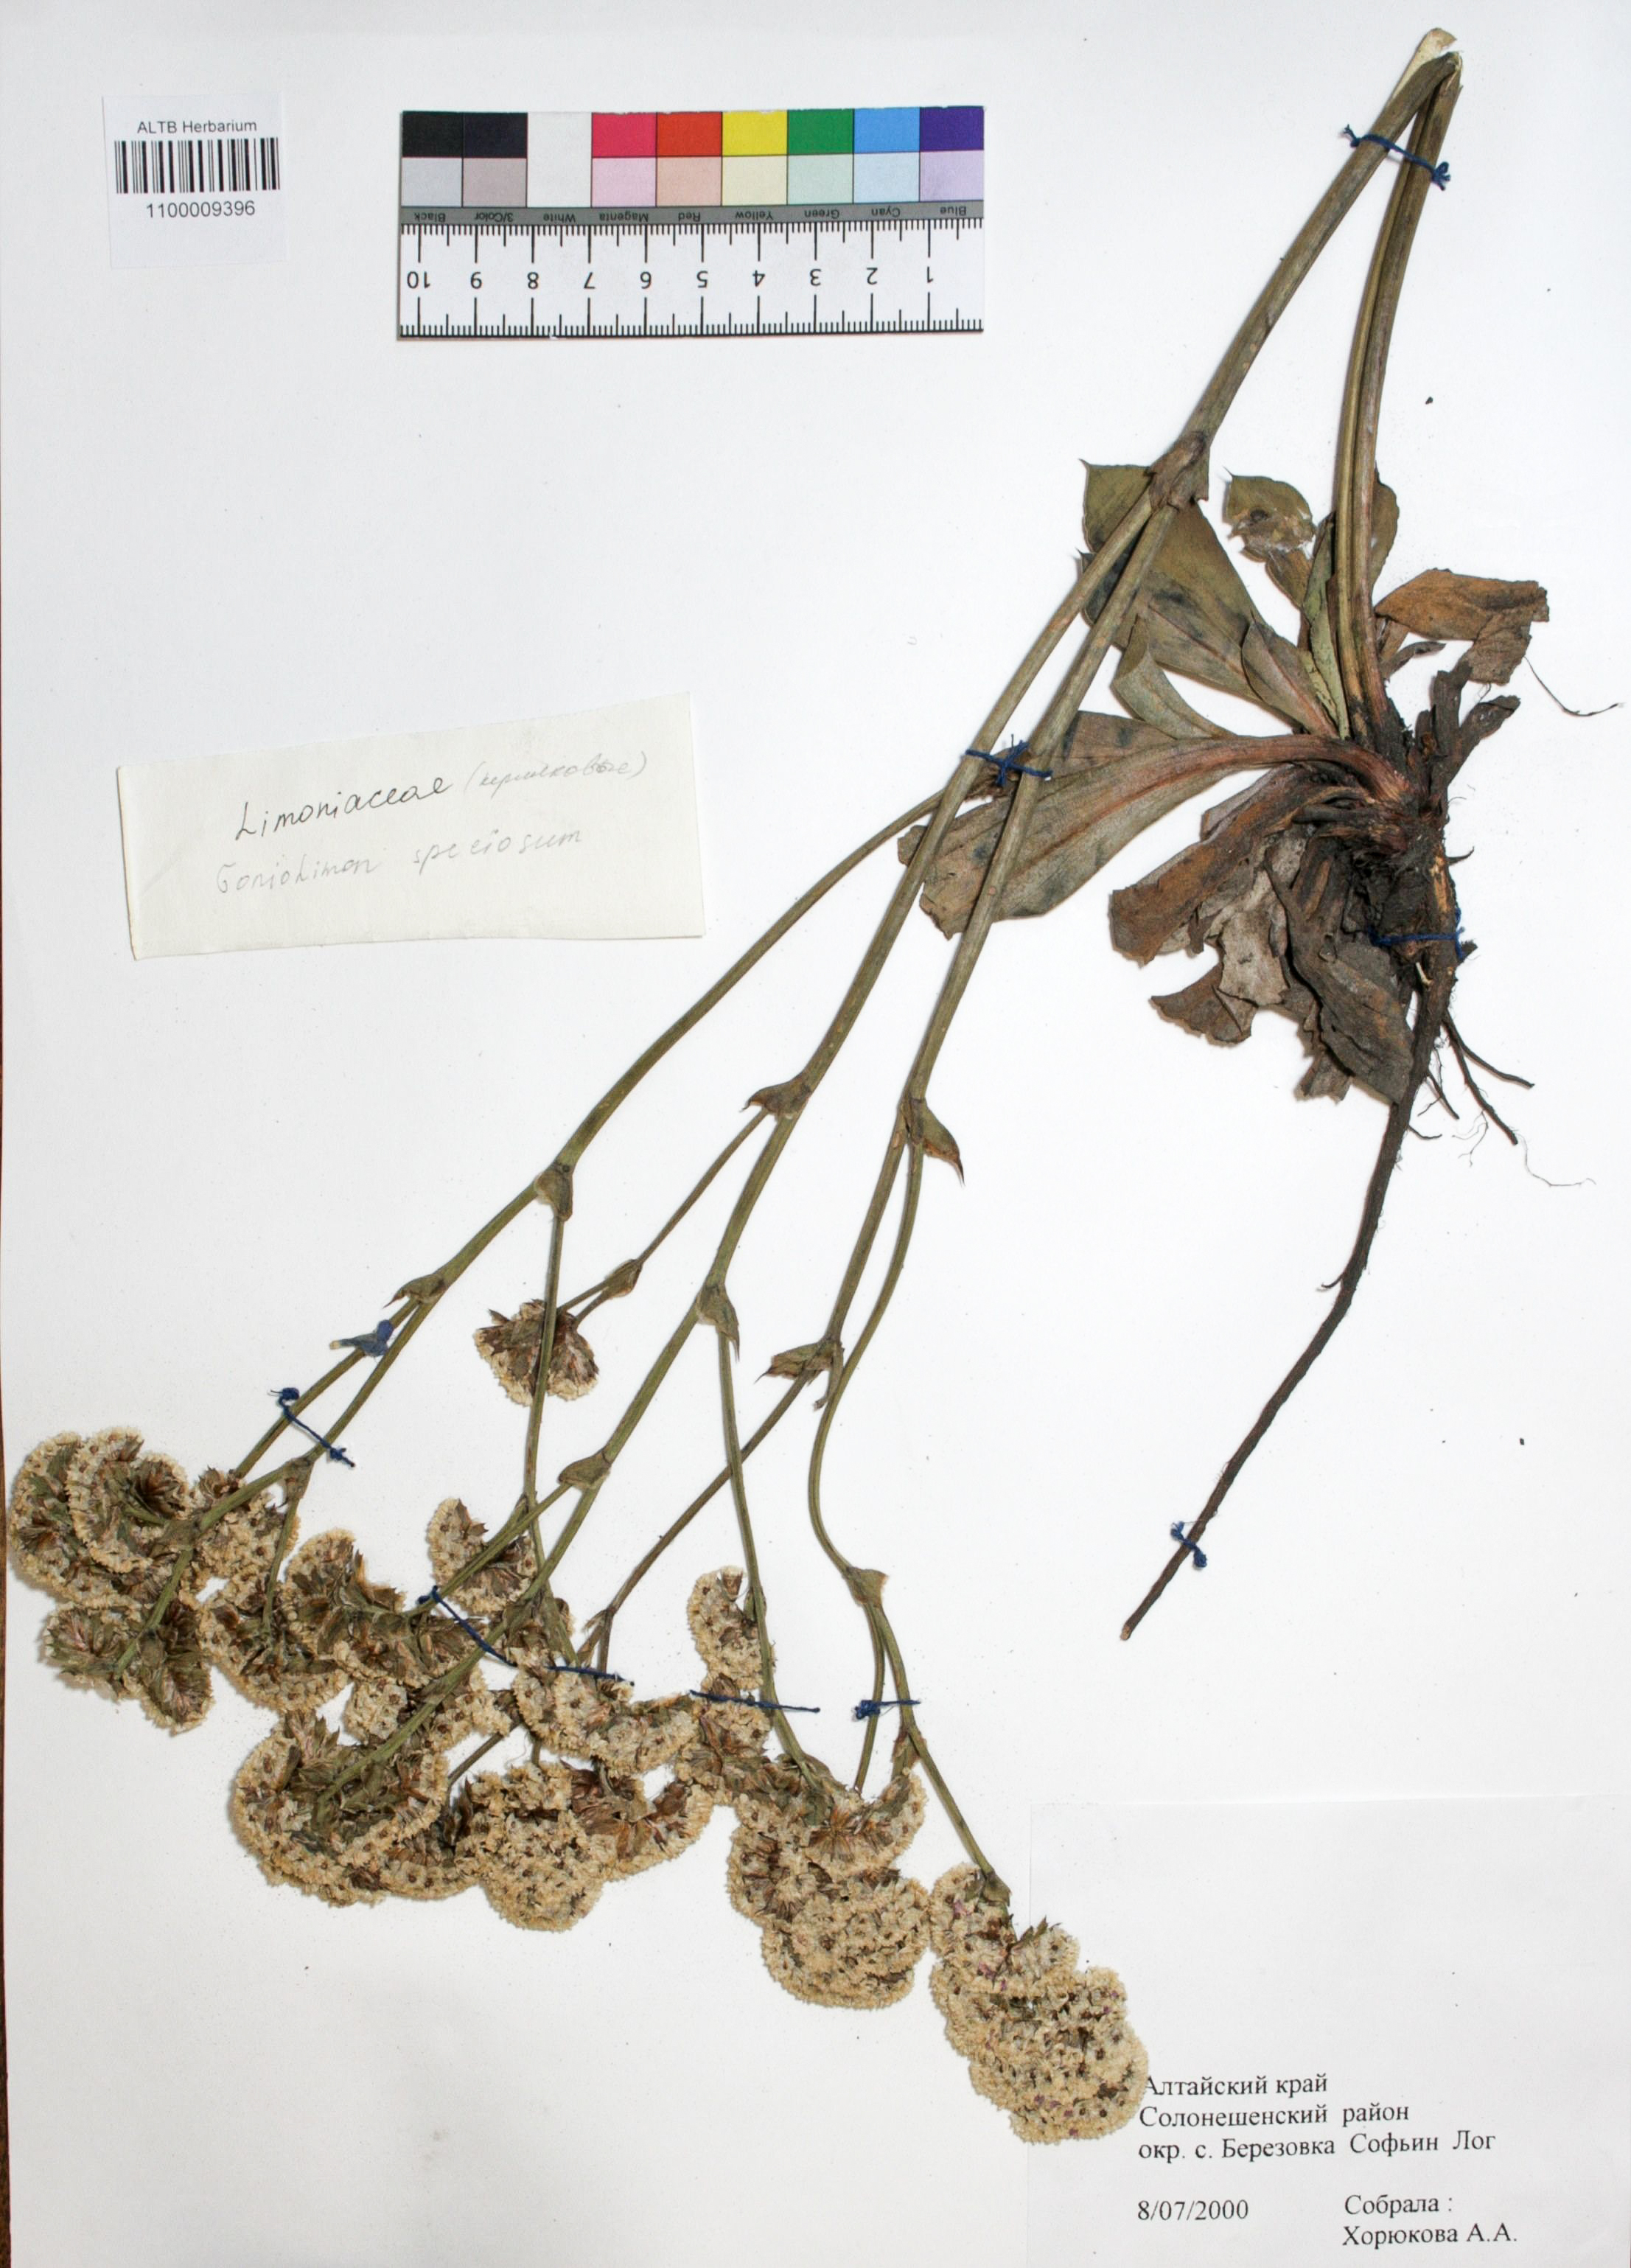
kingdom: Plantae
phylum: Tracheophyta
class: Magnoliopsida
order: Caryophyllales
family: Plumbaginaceae
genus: Goniolimon
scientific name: Goniolimon speciosum
